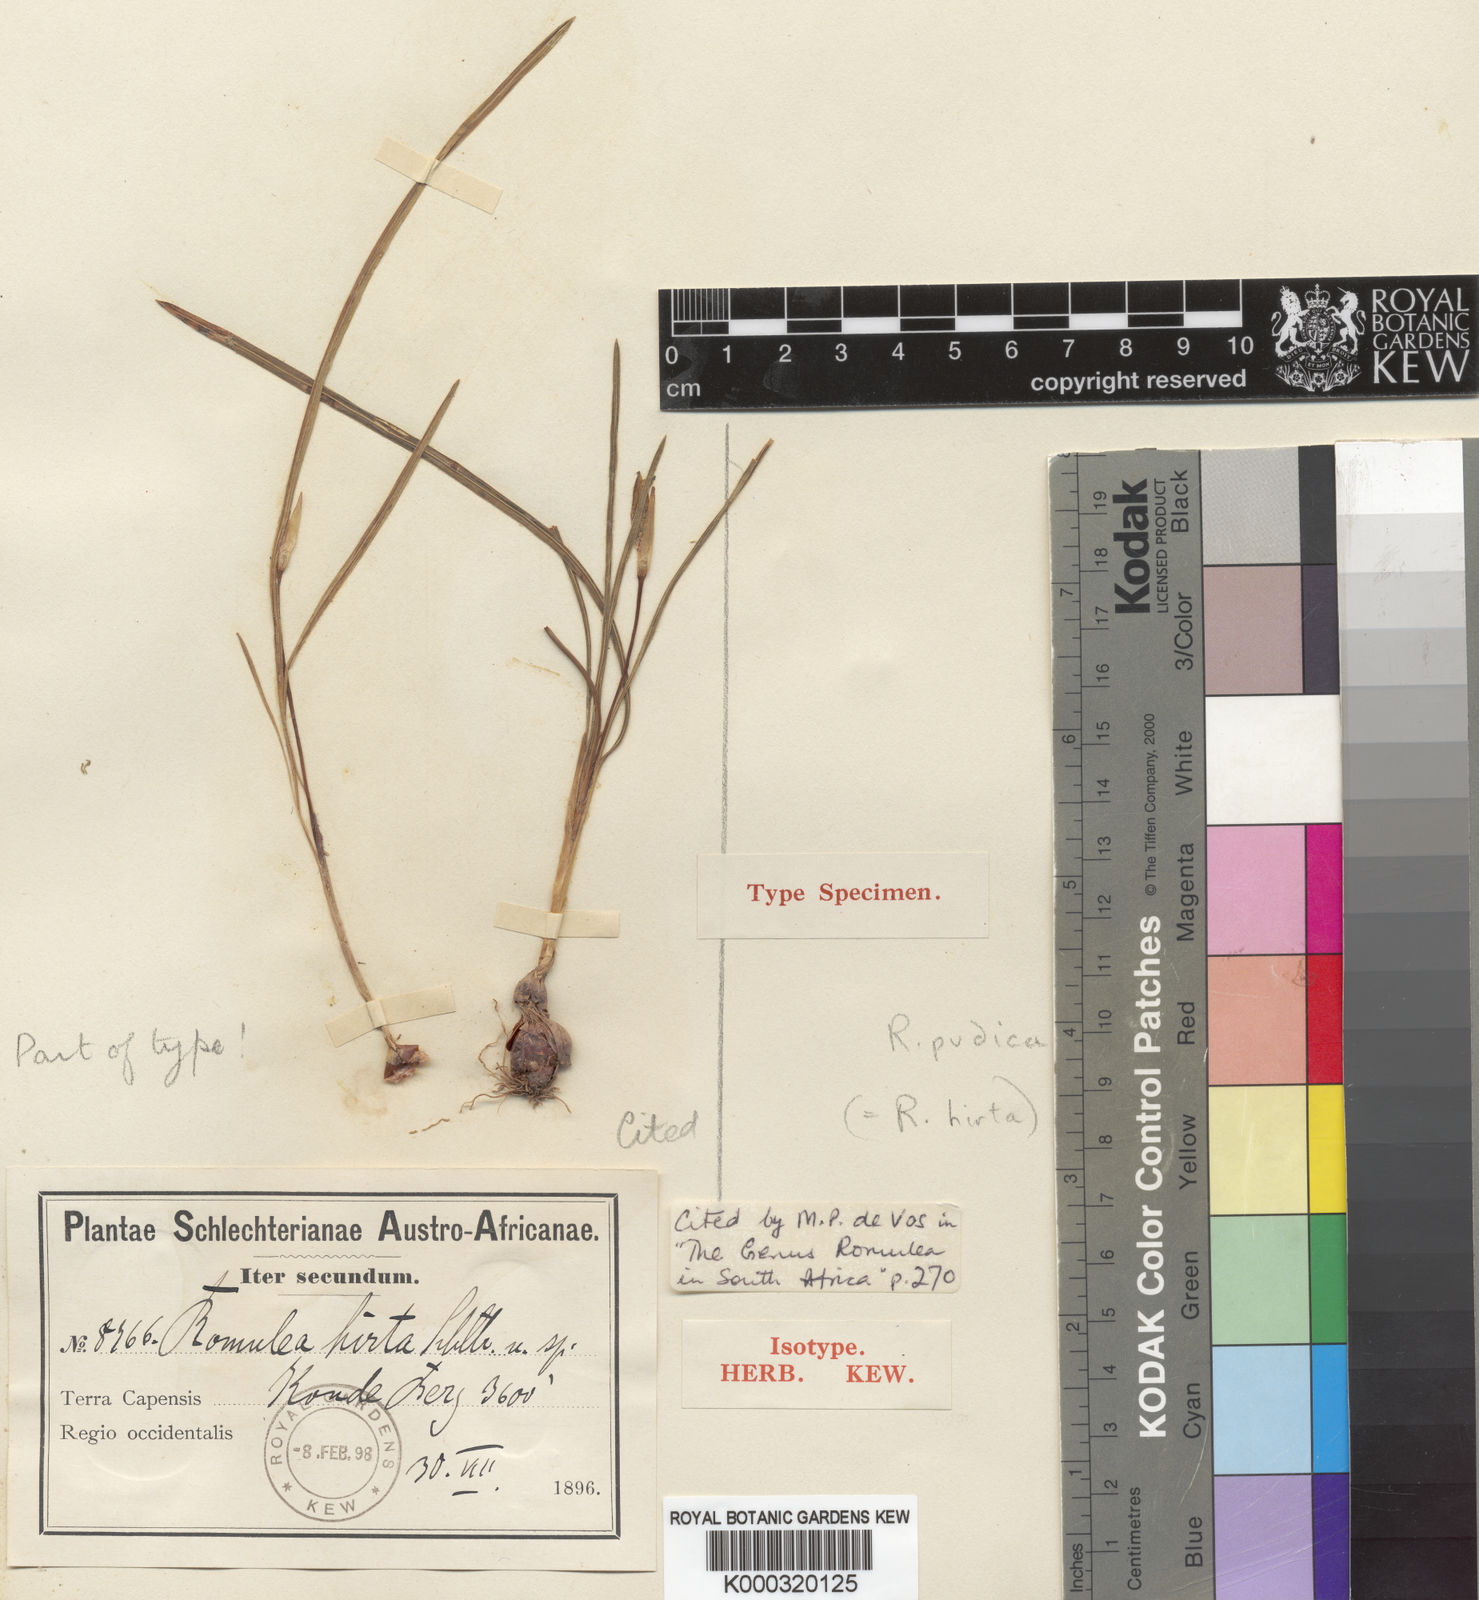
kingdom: Plantae
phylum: Tracheophyta
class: Liliopsida
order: Asparagales
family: Iridaceae
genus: Romulea
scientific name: Romulea hirta
